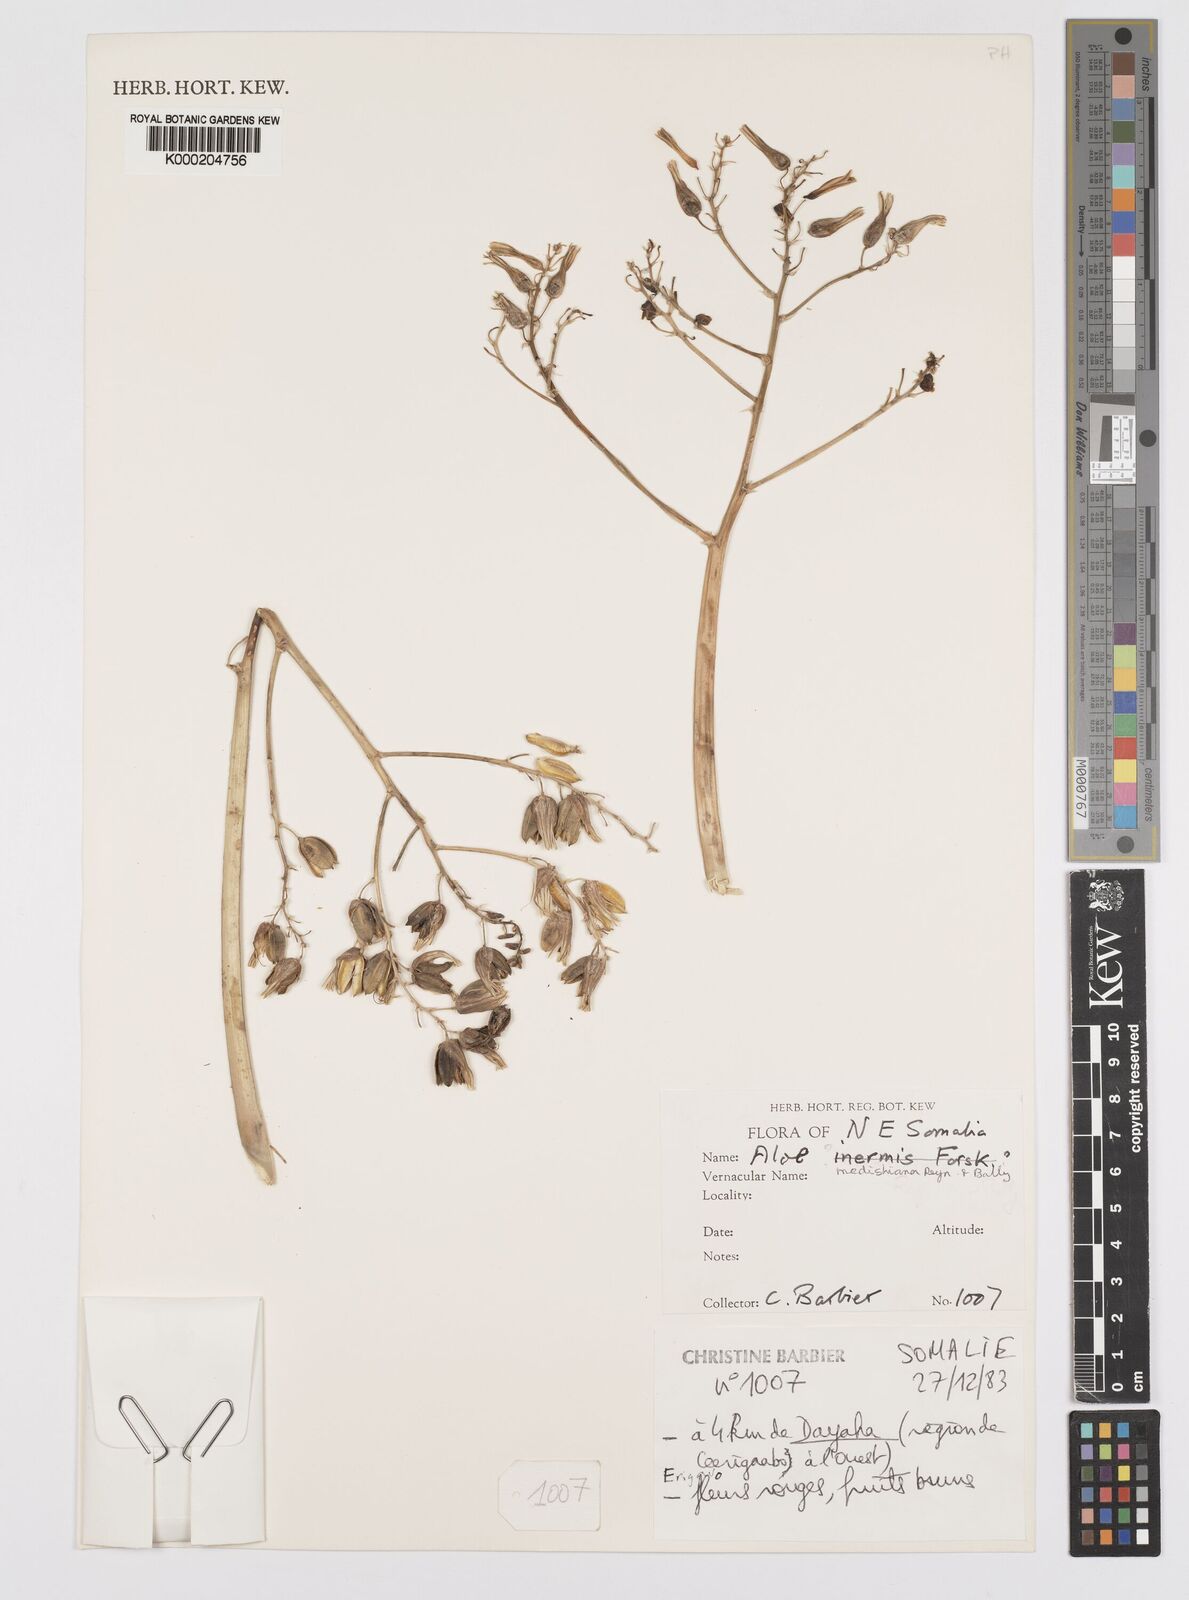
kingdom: Plantae
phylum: Tracheophyta
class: Liliopsida
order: Asparagales
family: Asphodelaceae
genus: Aloe
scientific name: Aloe medishiana
